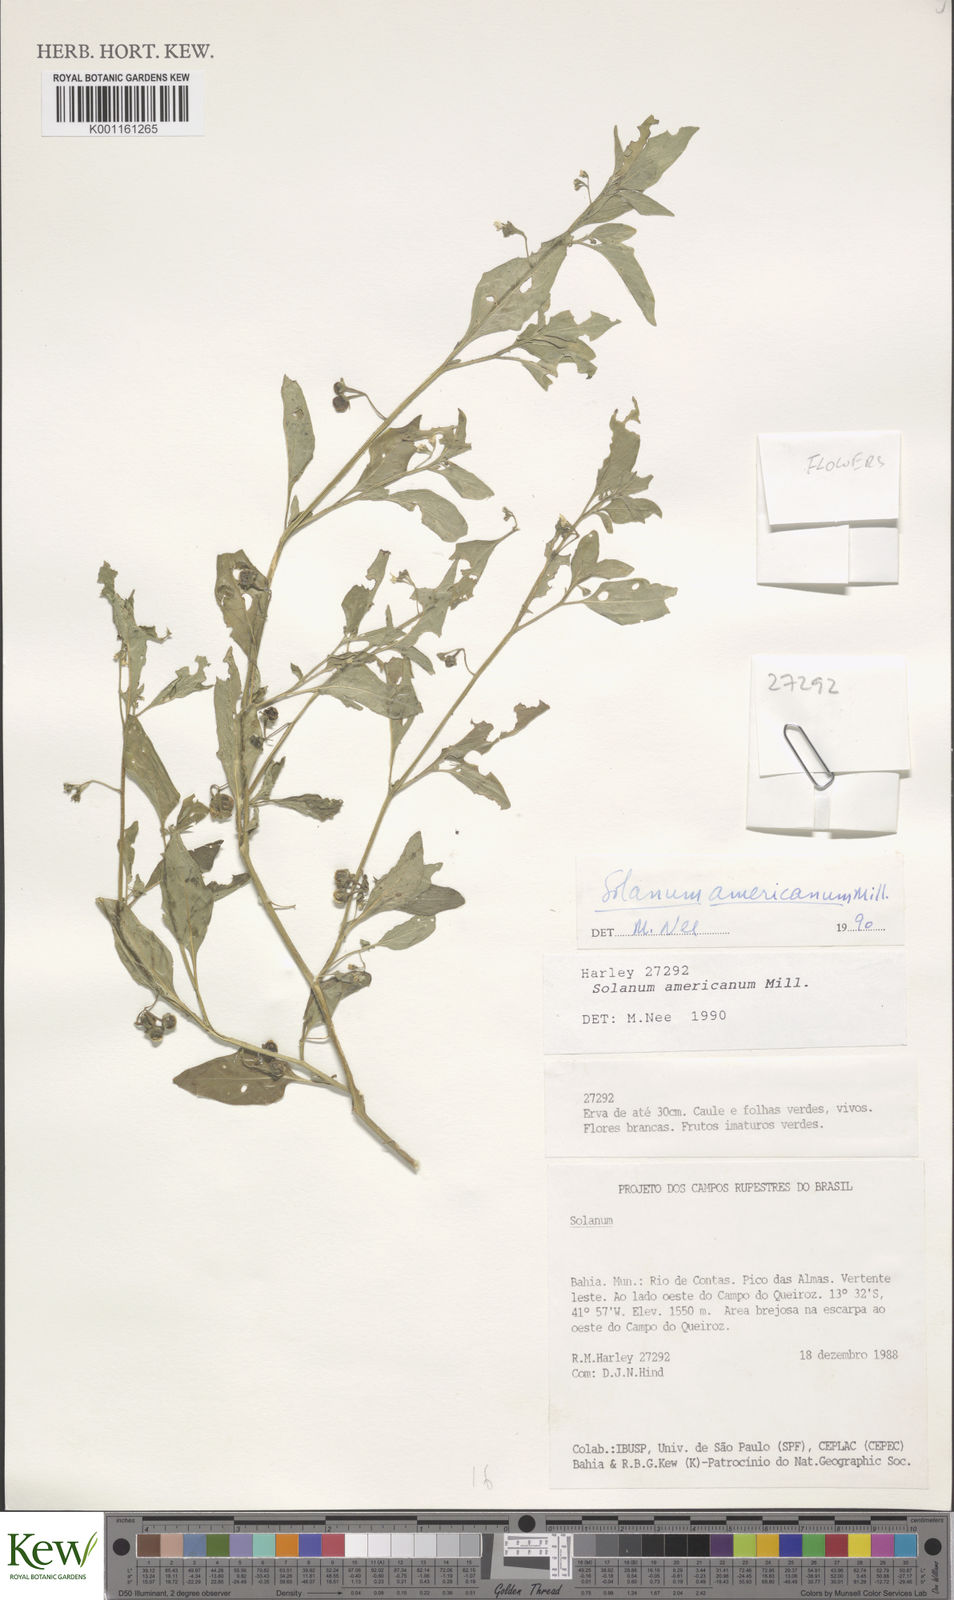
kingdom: Plantae
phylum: Tracheophyta
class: Magnoliopsida
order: Solanales
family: Solanaceae
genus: Solanum
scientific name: Solanum americanum
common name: American black nightshade
